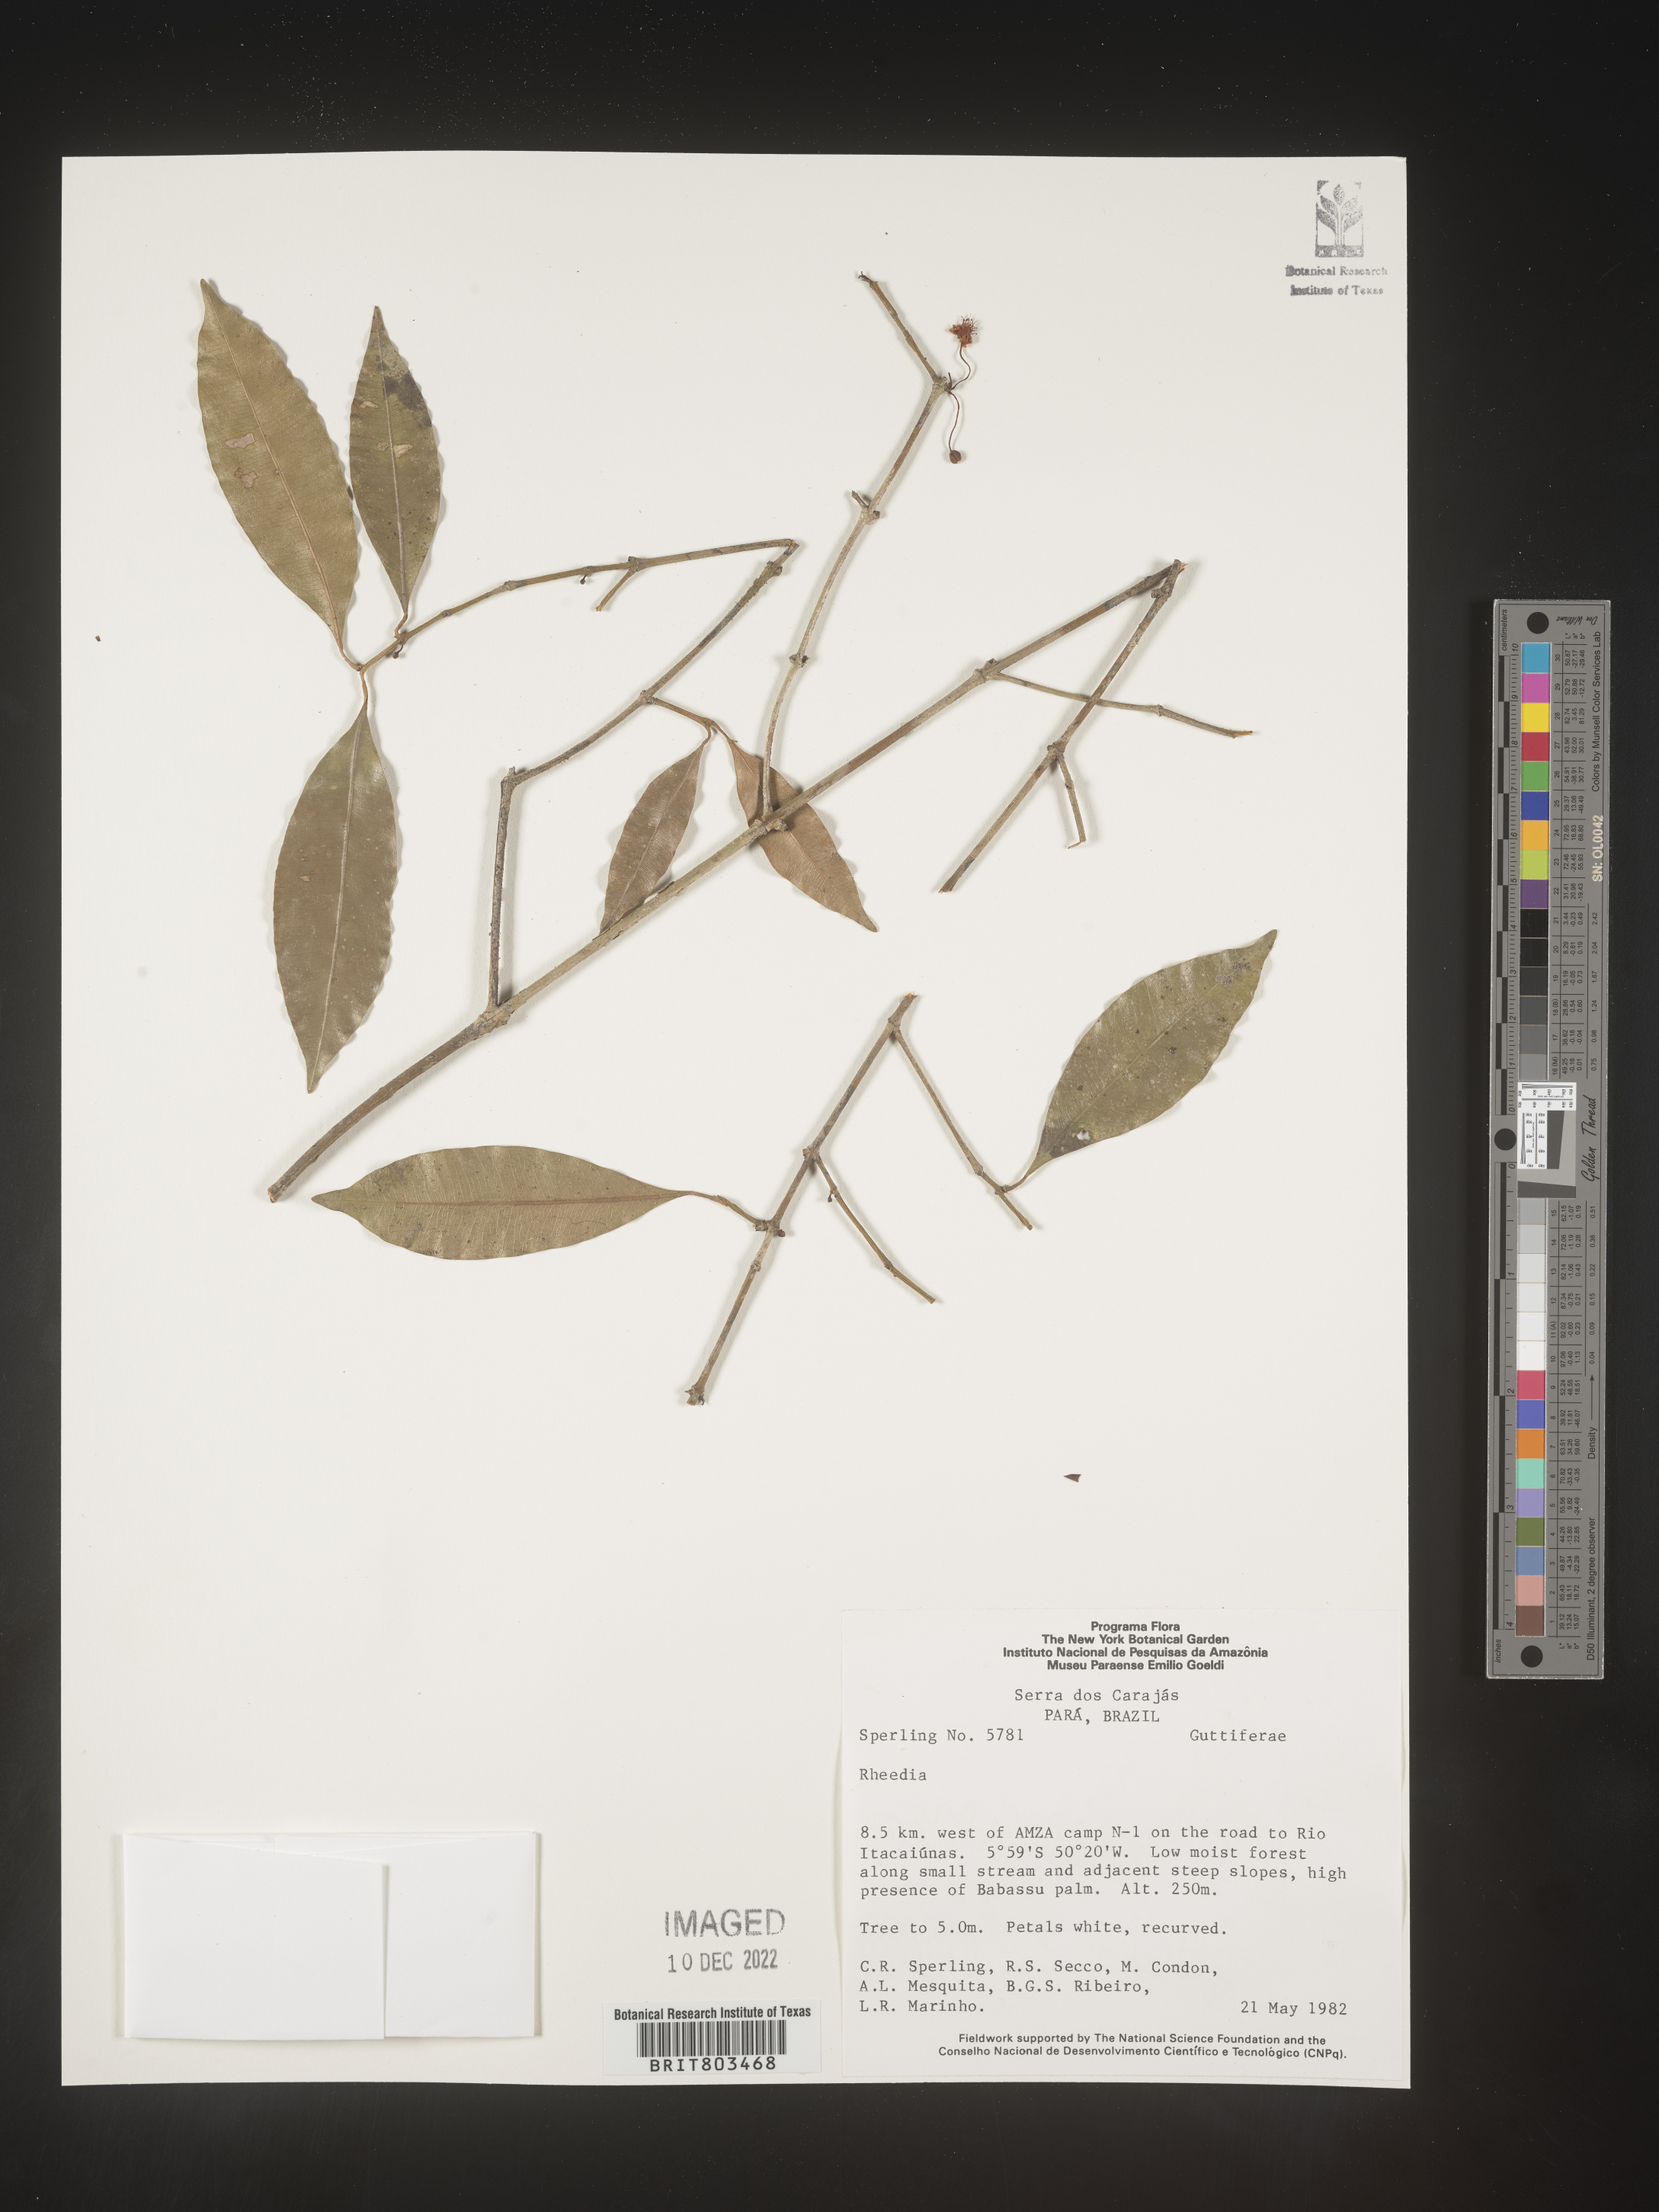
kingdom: Plantae
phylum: Tracheophyta
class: Magnoliopsida
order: Malpighiales
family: Clusiaceae
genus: Tovomita
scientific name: Tovomita
